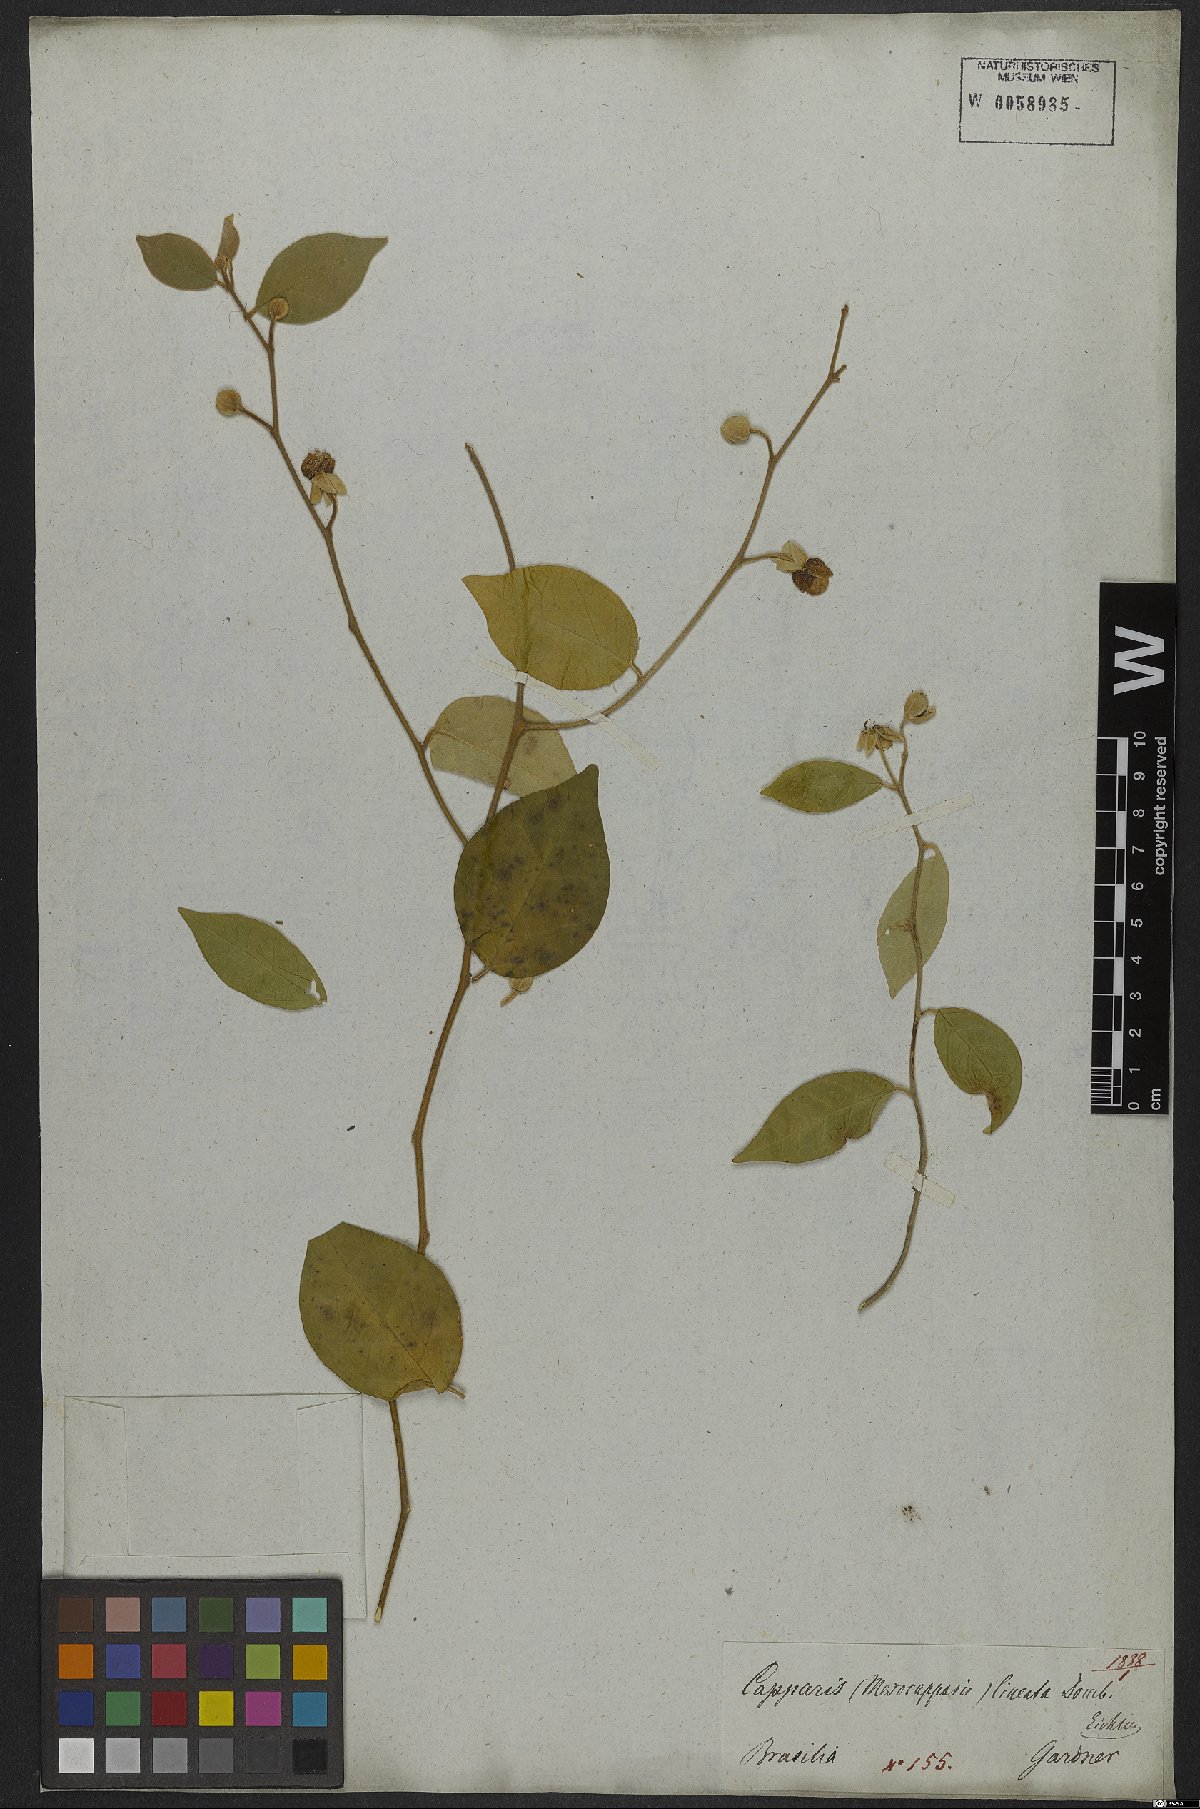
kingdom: Plantae
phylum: Tracheophyta
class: Magnoliopsida
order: Brassicales
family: Capparaceae
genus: Mesocapparis
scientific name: Mesocapparis lineata
